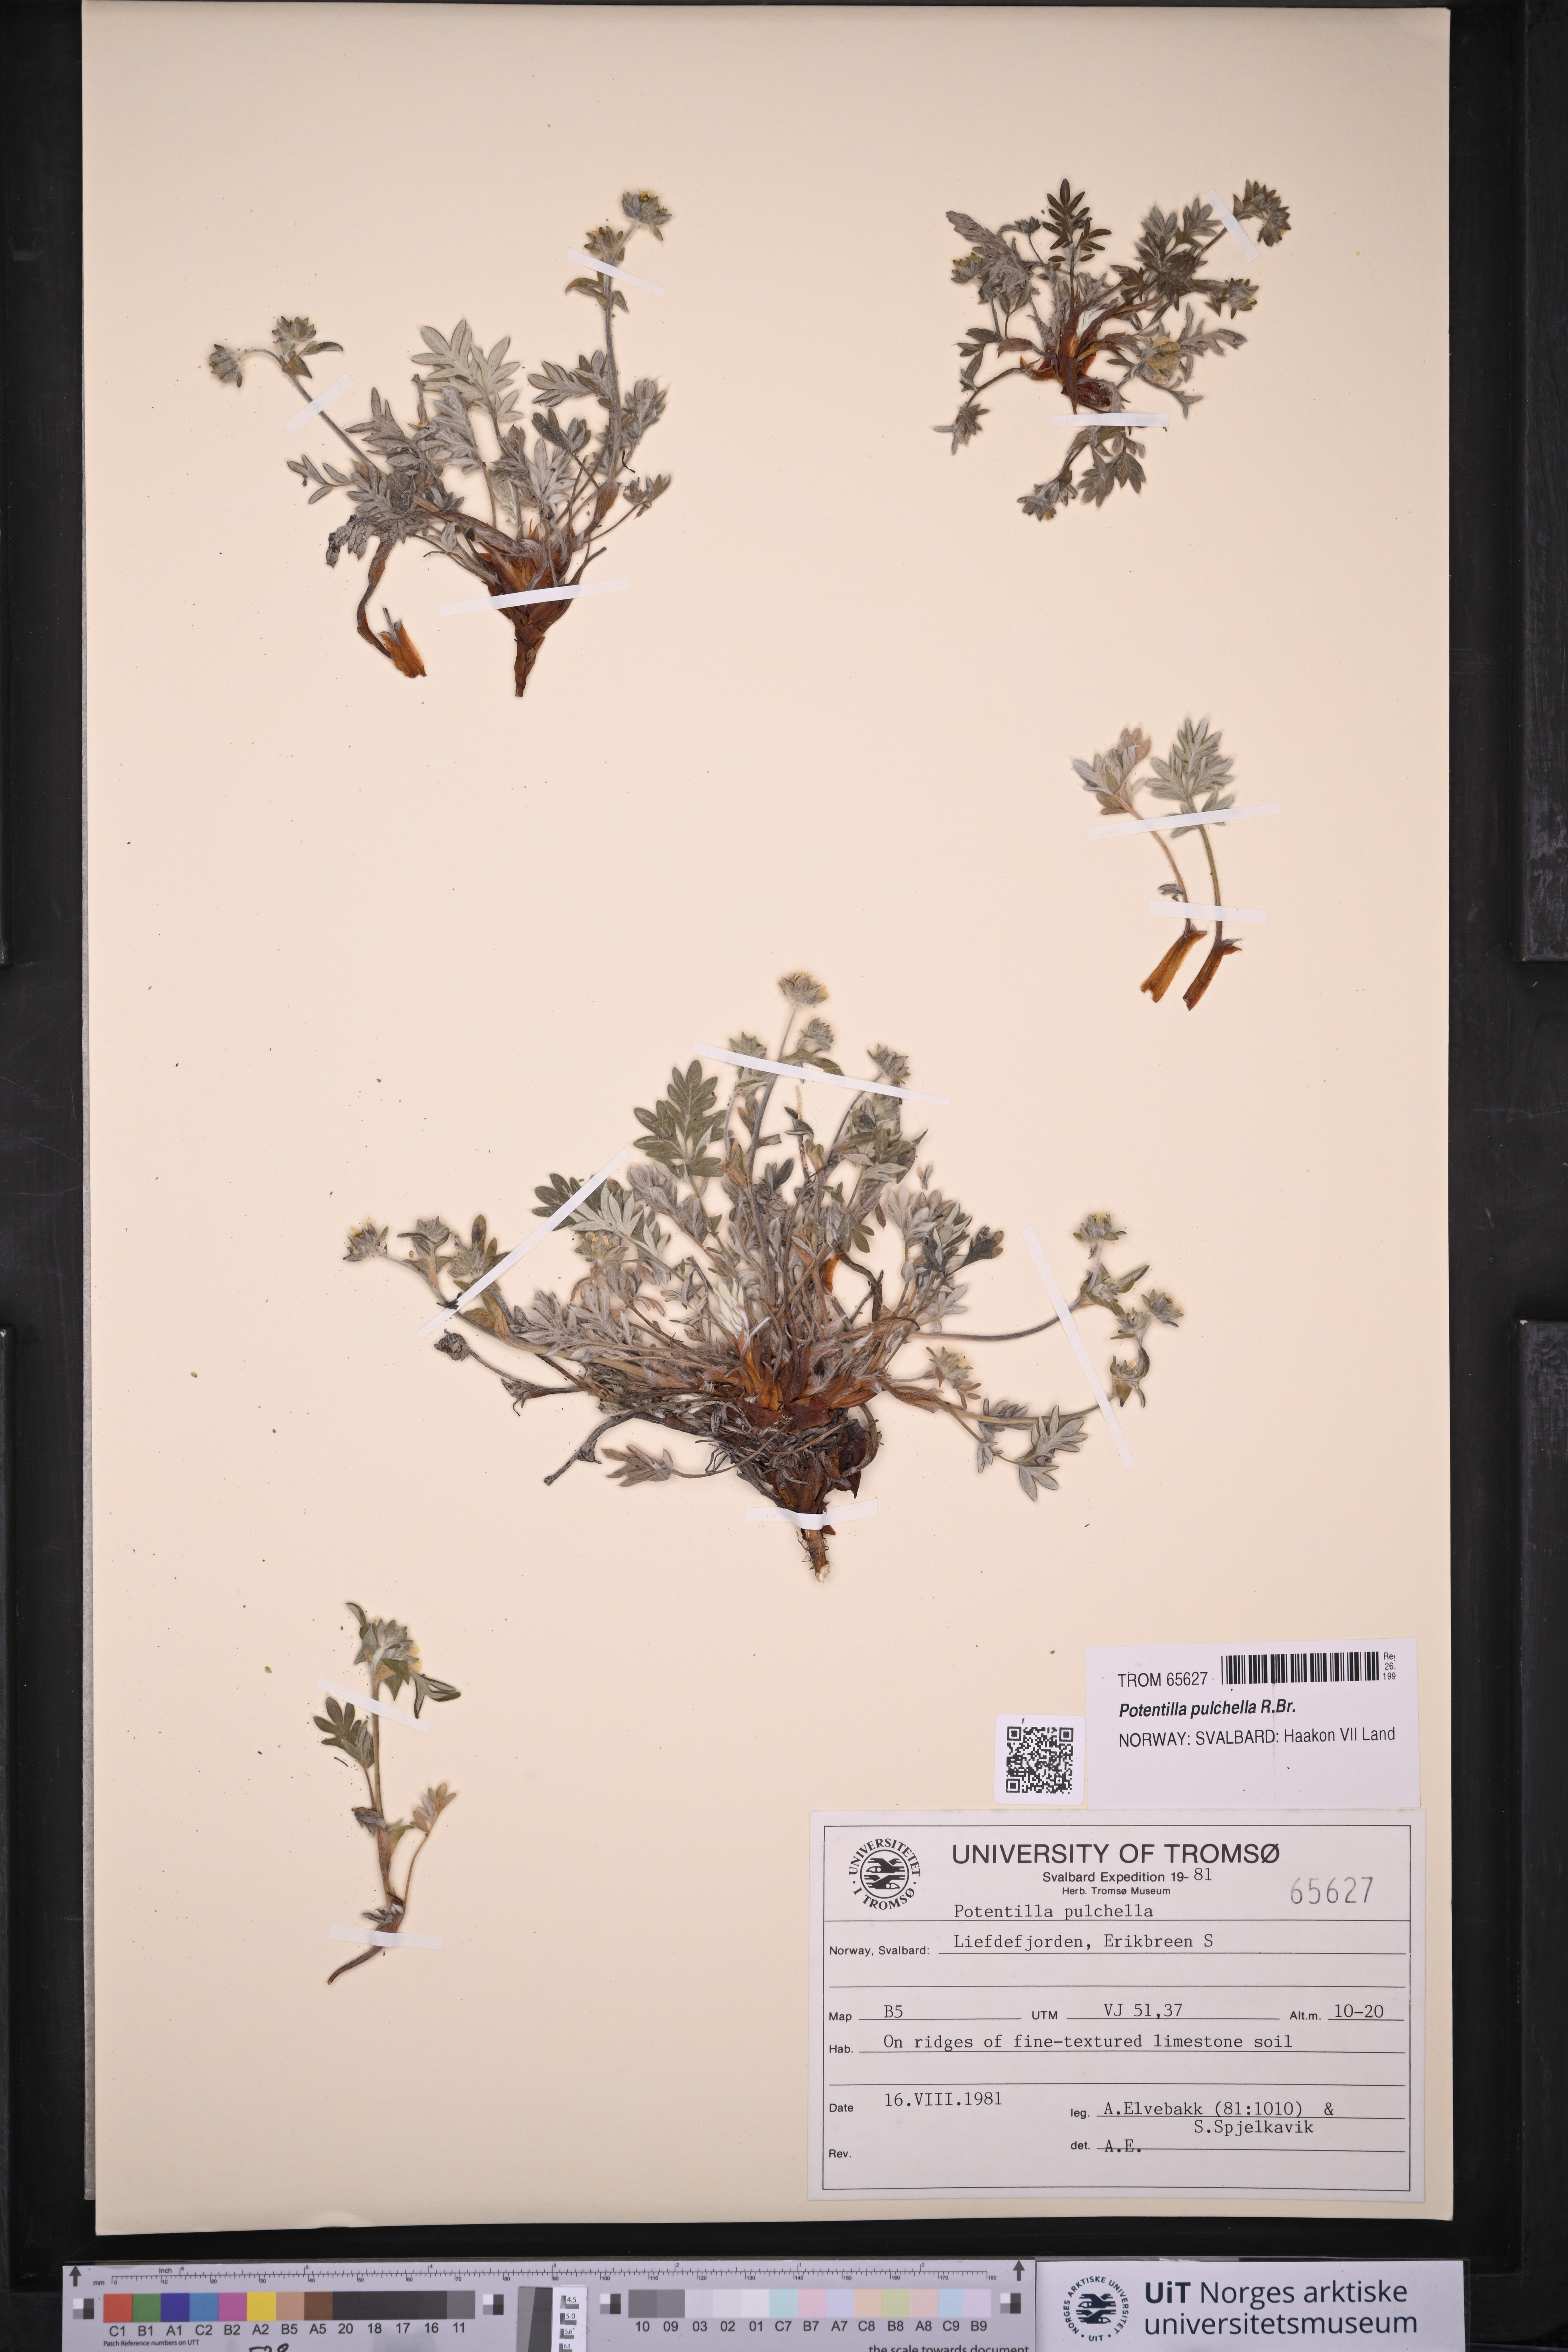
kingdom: Plantae
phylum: Tracheophyta
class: Magnoliopsida
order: Rosales
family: Rosaceae
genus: Potentilla
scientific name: Potentilla pulchella
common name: Pretty cinquefoil
